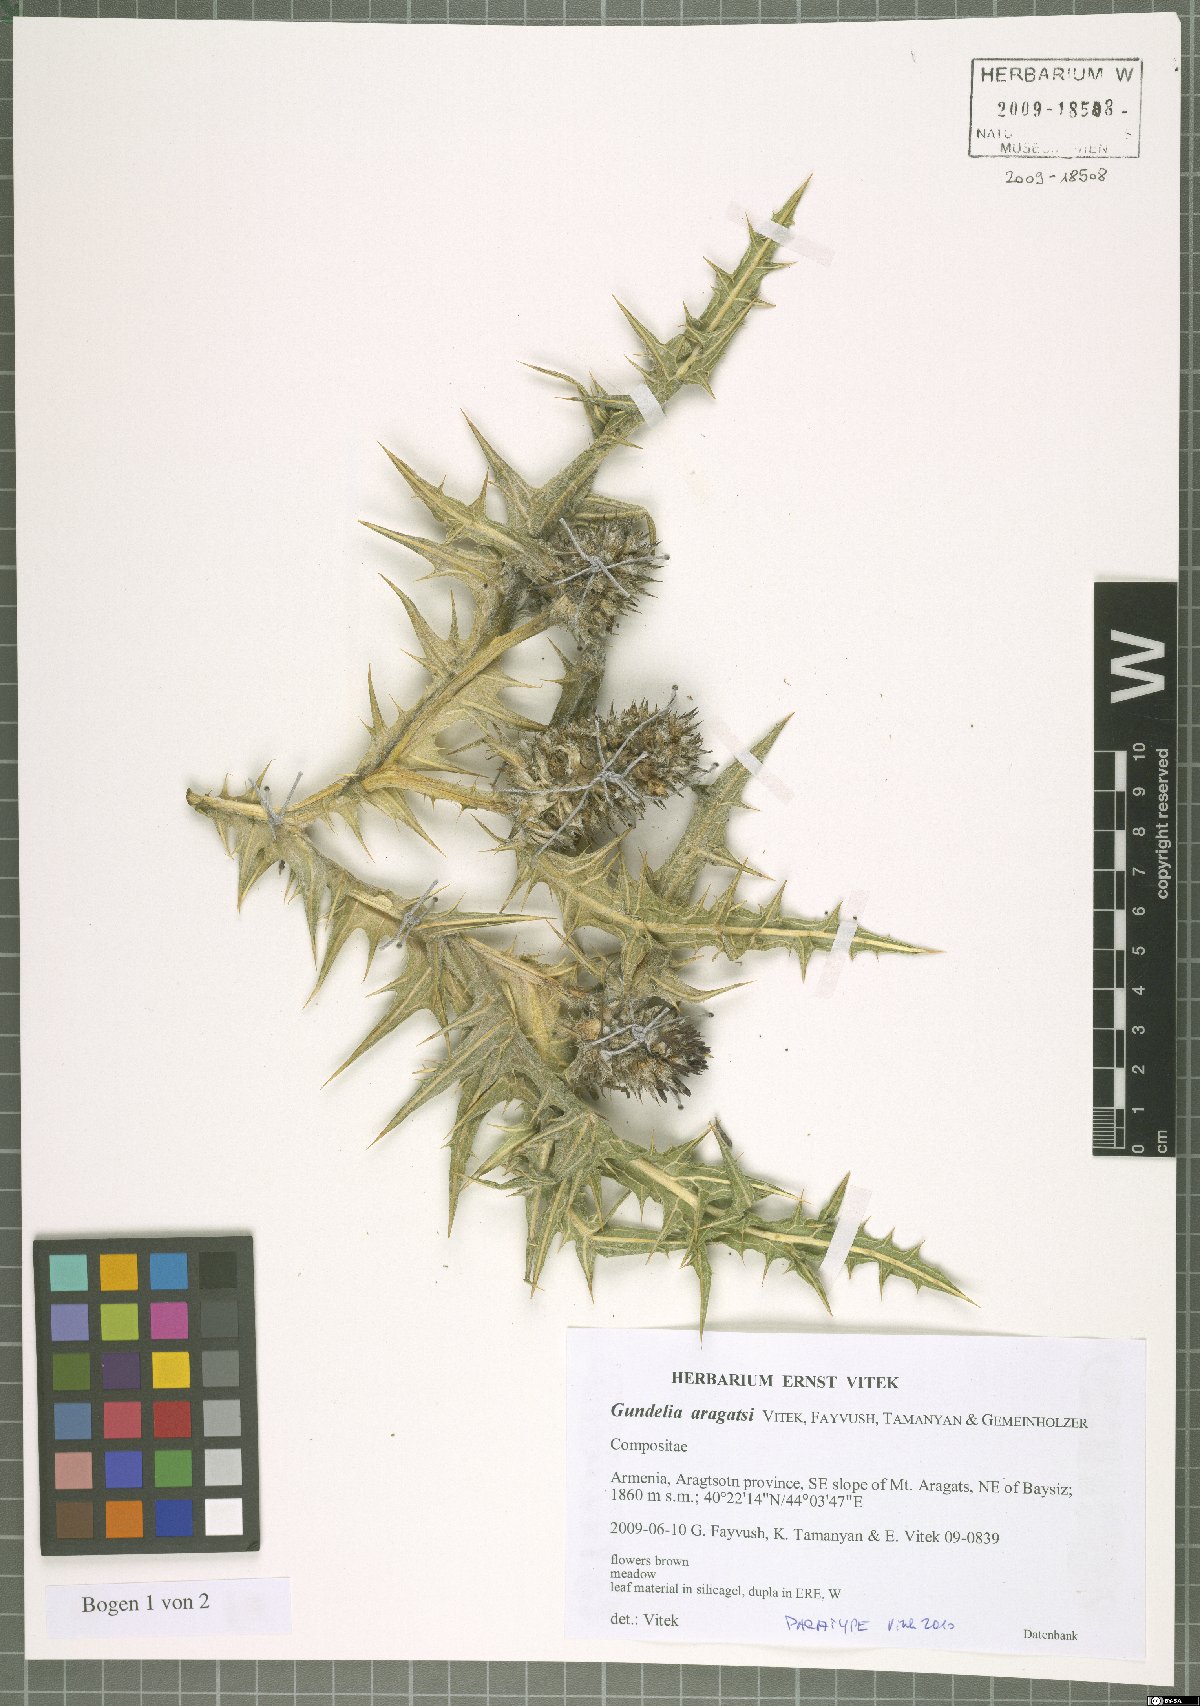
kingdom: Plantae
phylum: Tracheophyta
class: Magnoliopsida
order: Asterales
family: Asteraceae
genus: Gundelia
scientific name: Gundelia aragatsi
